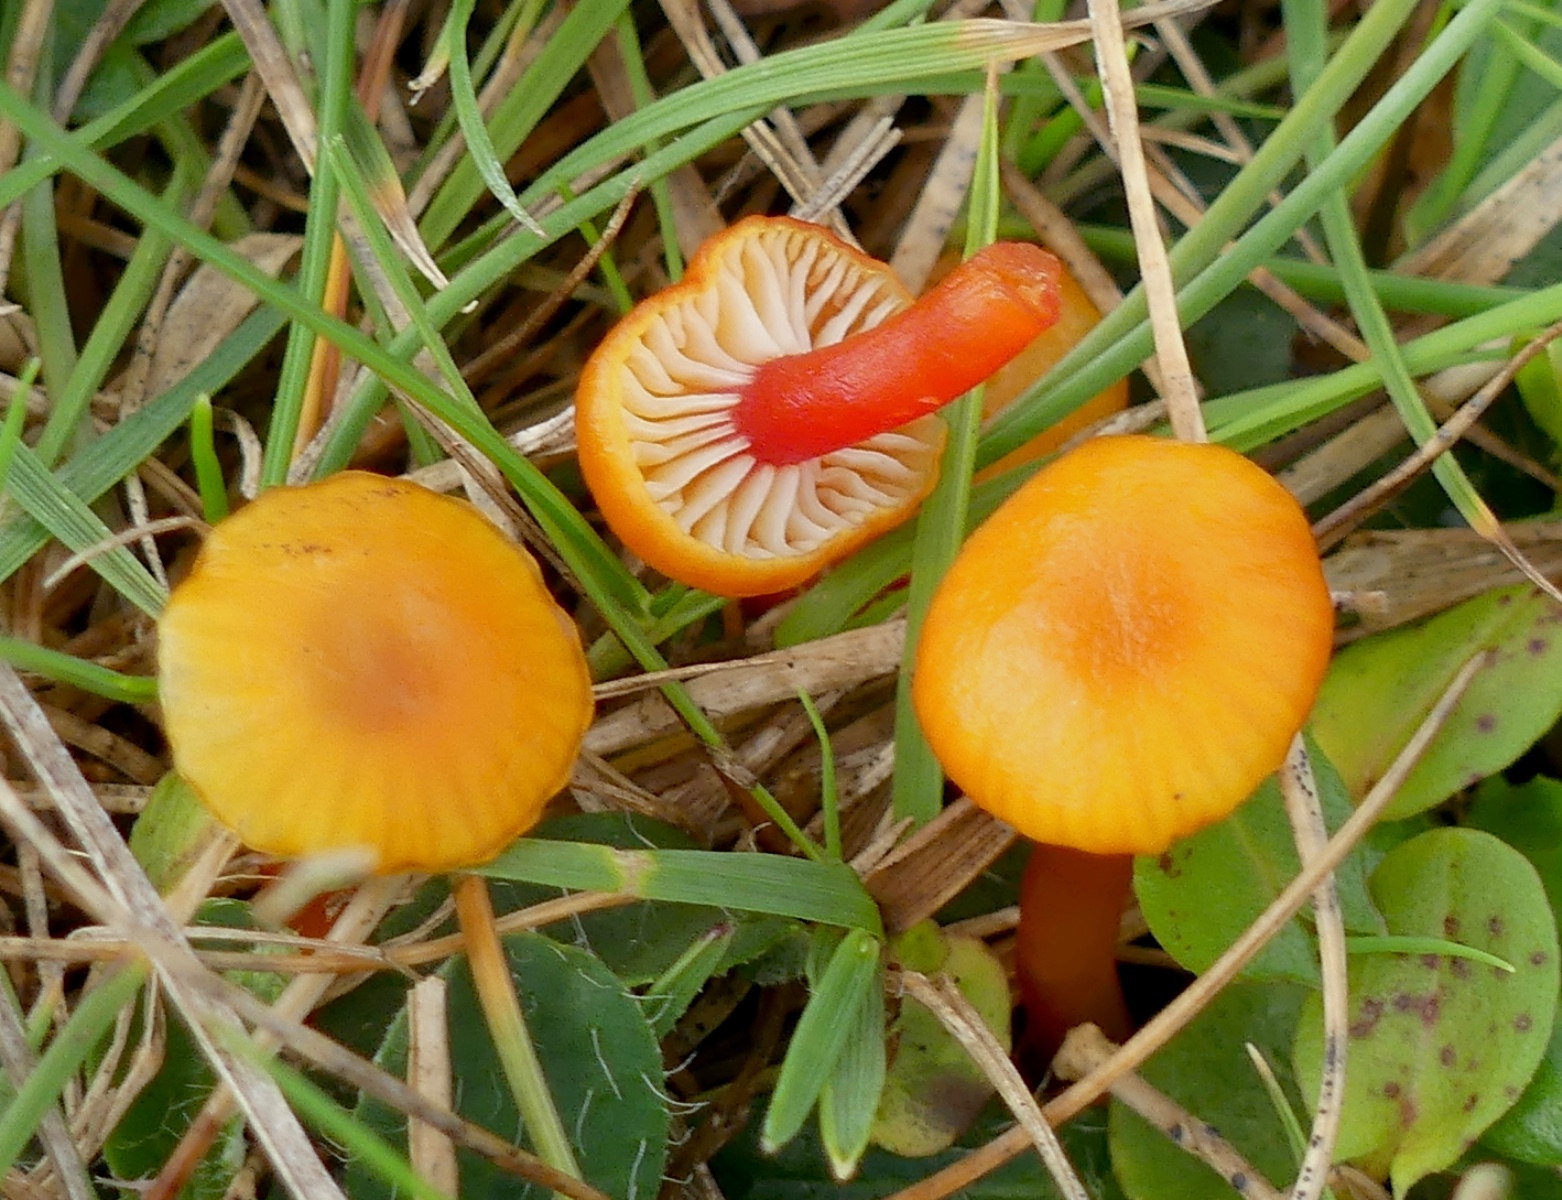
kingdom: Fungi
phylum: Basidiomycota
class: Agaricomycetes
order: Agaricales
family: Hygrophoraceae
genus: Hygrocybe
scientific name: Hygrocybe insipida
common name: liden vokshat
